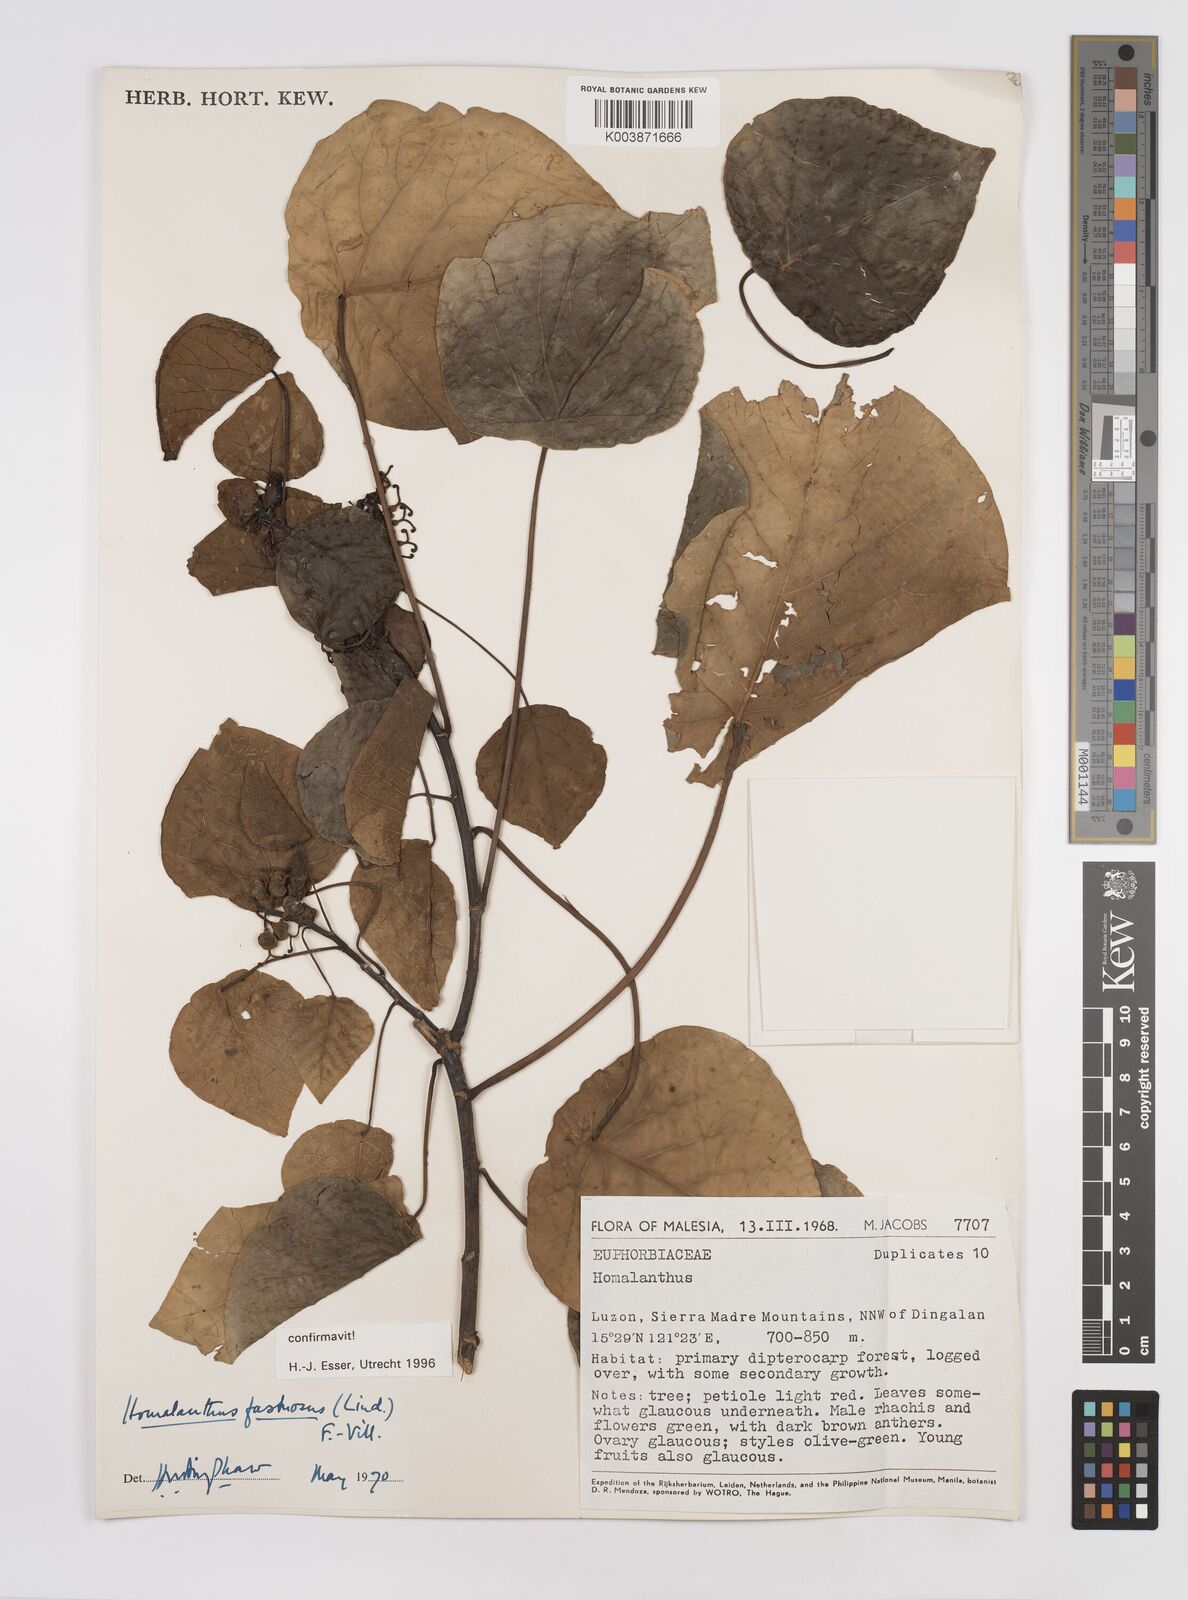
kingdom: Plantae
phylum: Tracheophyta
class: Magnoliopsida
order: Malpighiales
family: Euphorbiaceae
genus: Homalanthus
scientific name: Homalanthus fastuosus
